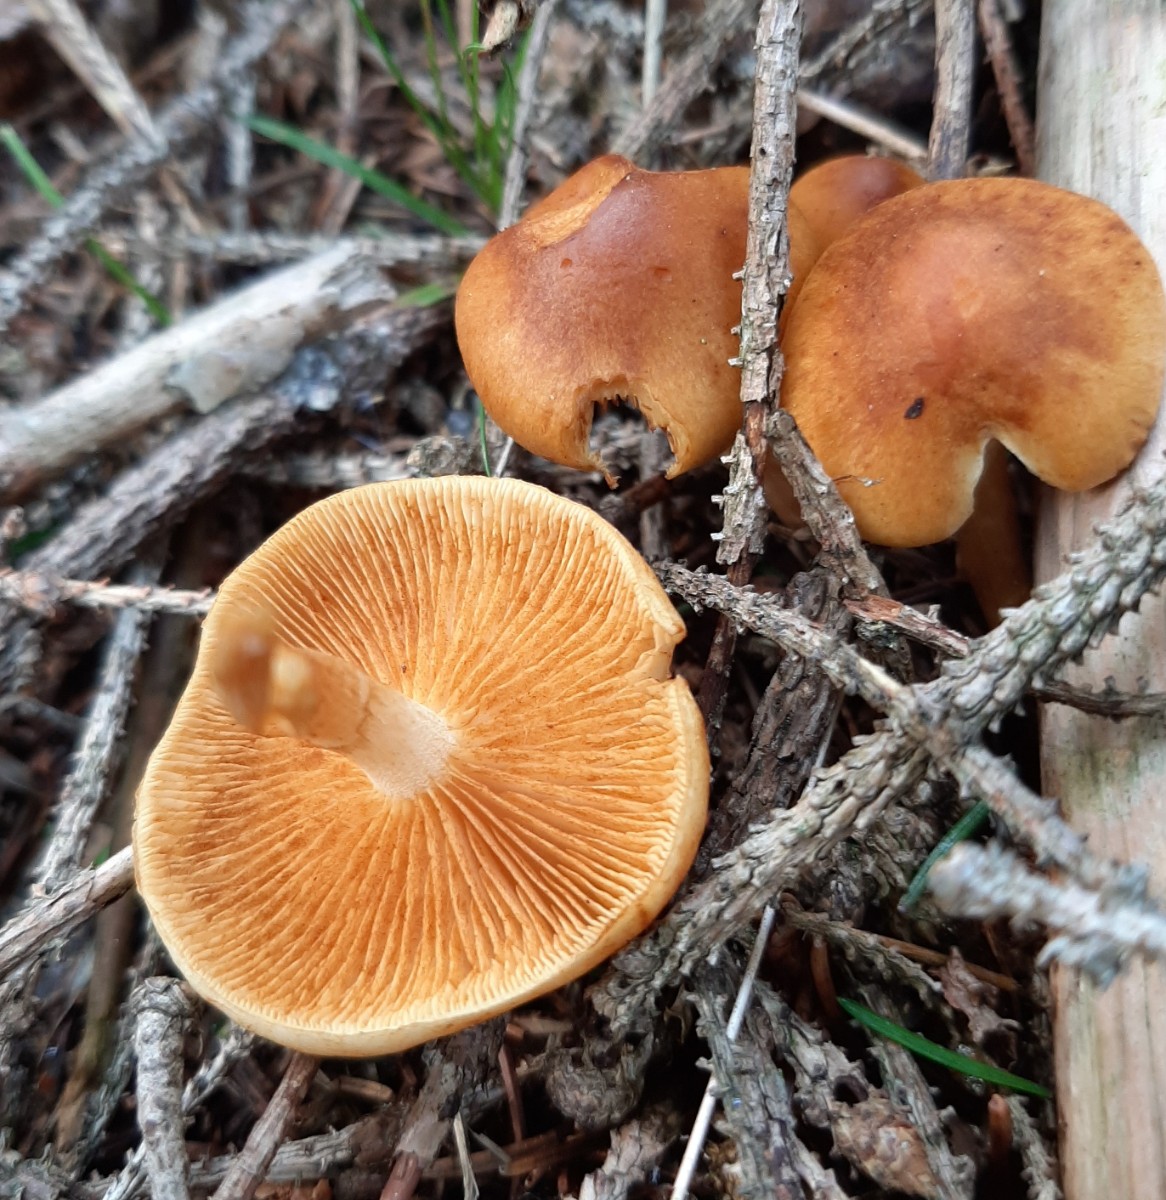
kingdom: Fungi
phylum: Basidiomycota
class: Agaricomycetes
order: Agaricales
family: Hymenogastraceae
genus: Gymnopilus
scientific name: Gymnopilus penetrans
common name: plettet flammehat
